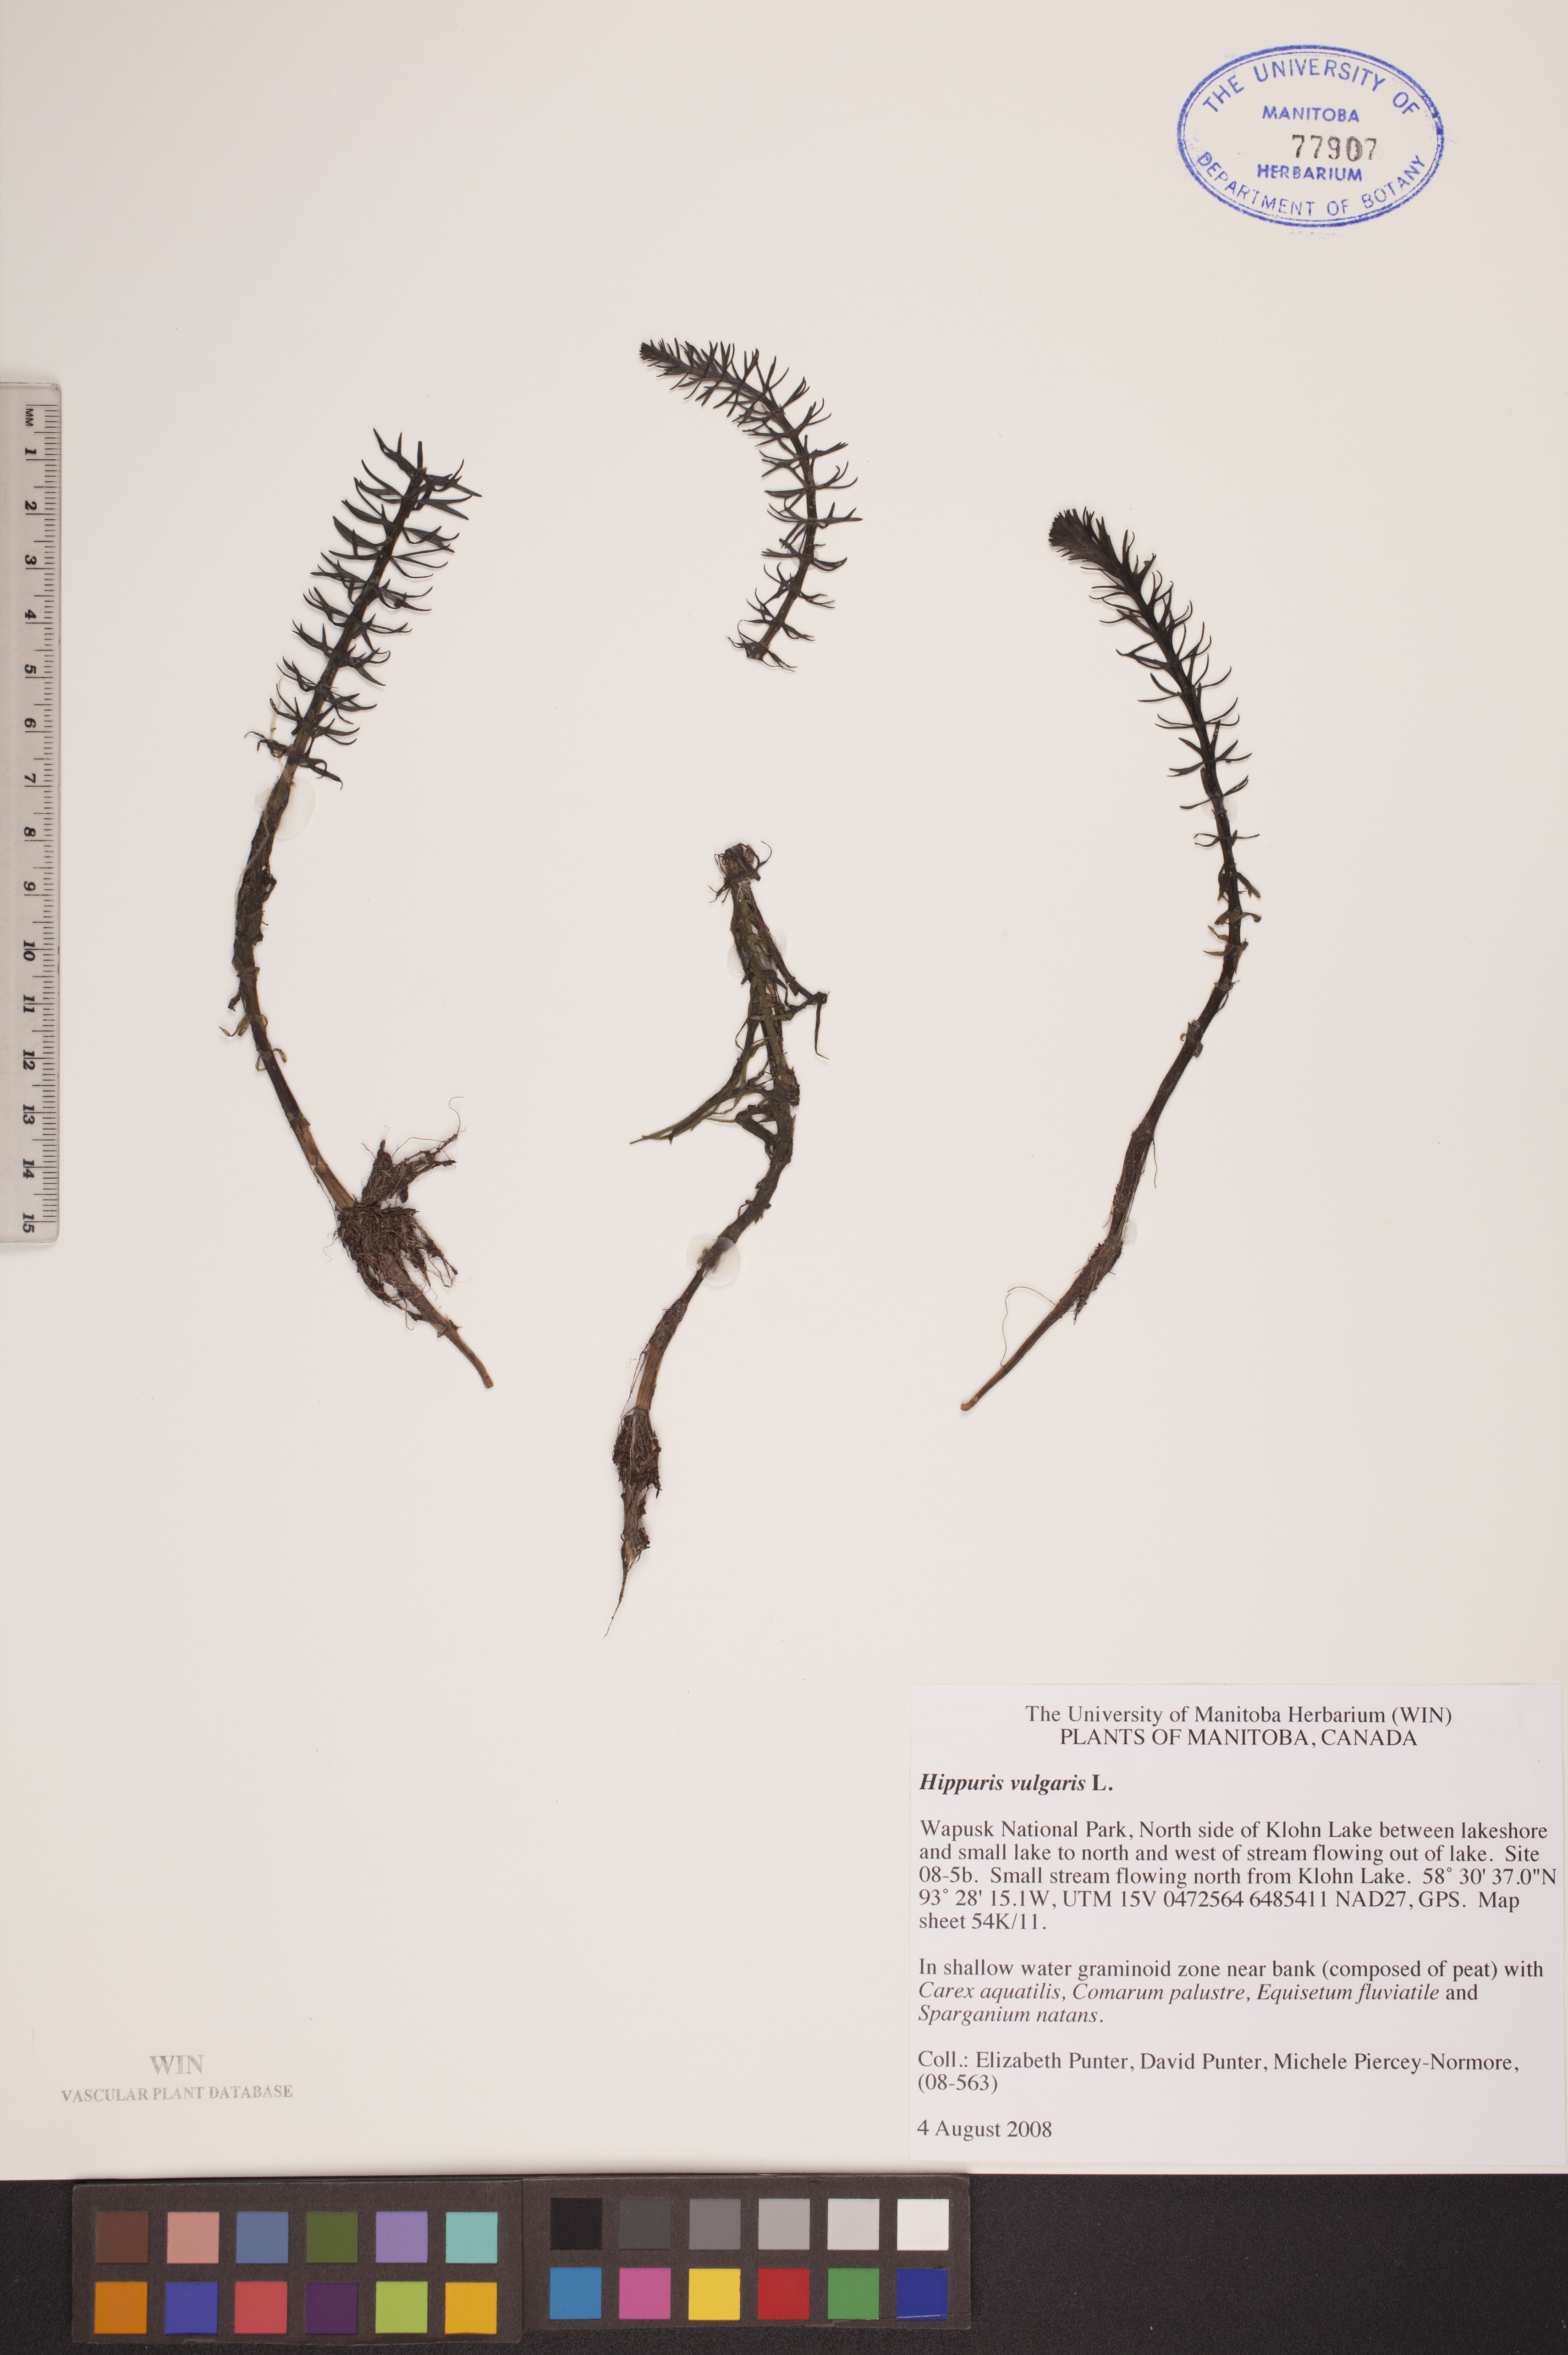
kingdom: Plantae
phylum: Tracheophyta
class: Magnoliopsida
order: Lamiales
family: Plantaginaceae
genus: Hippuris
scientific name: Hippuris vulgaris
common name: Mare's-tail
